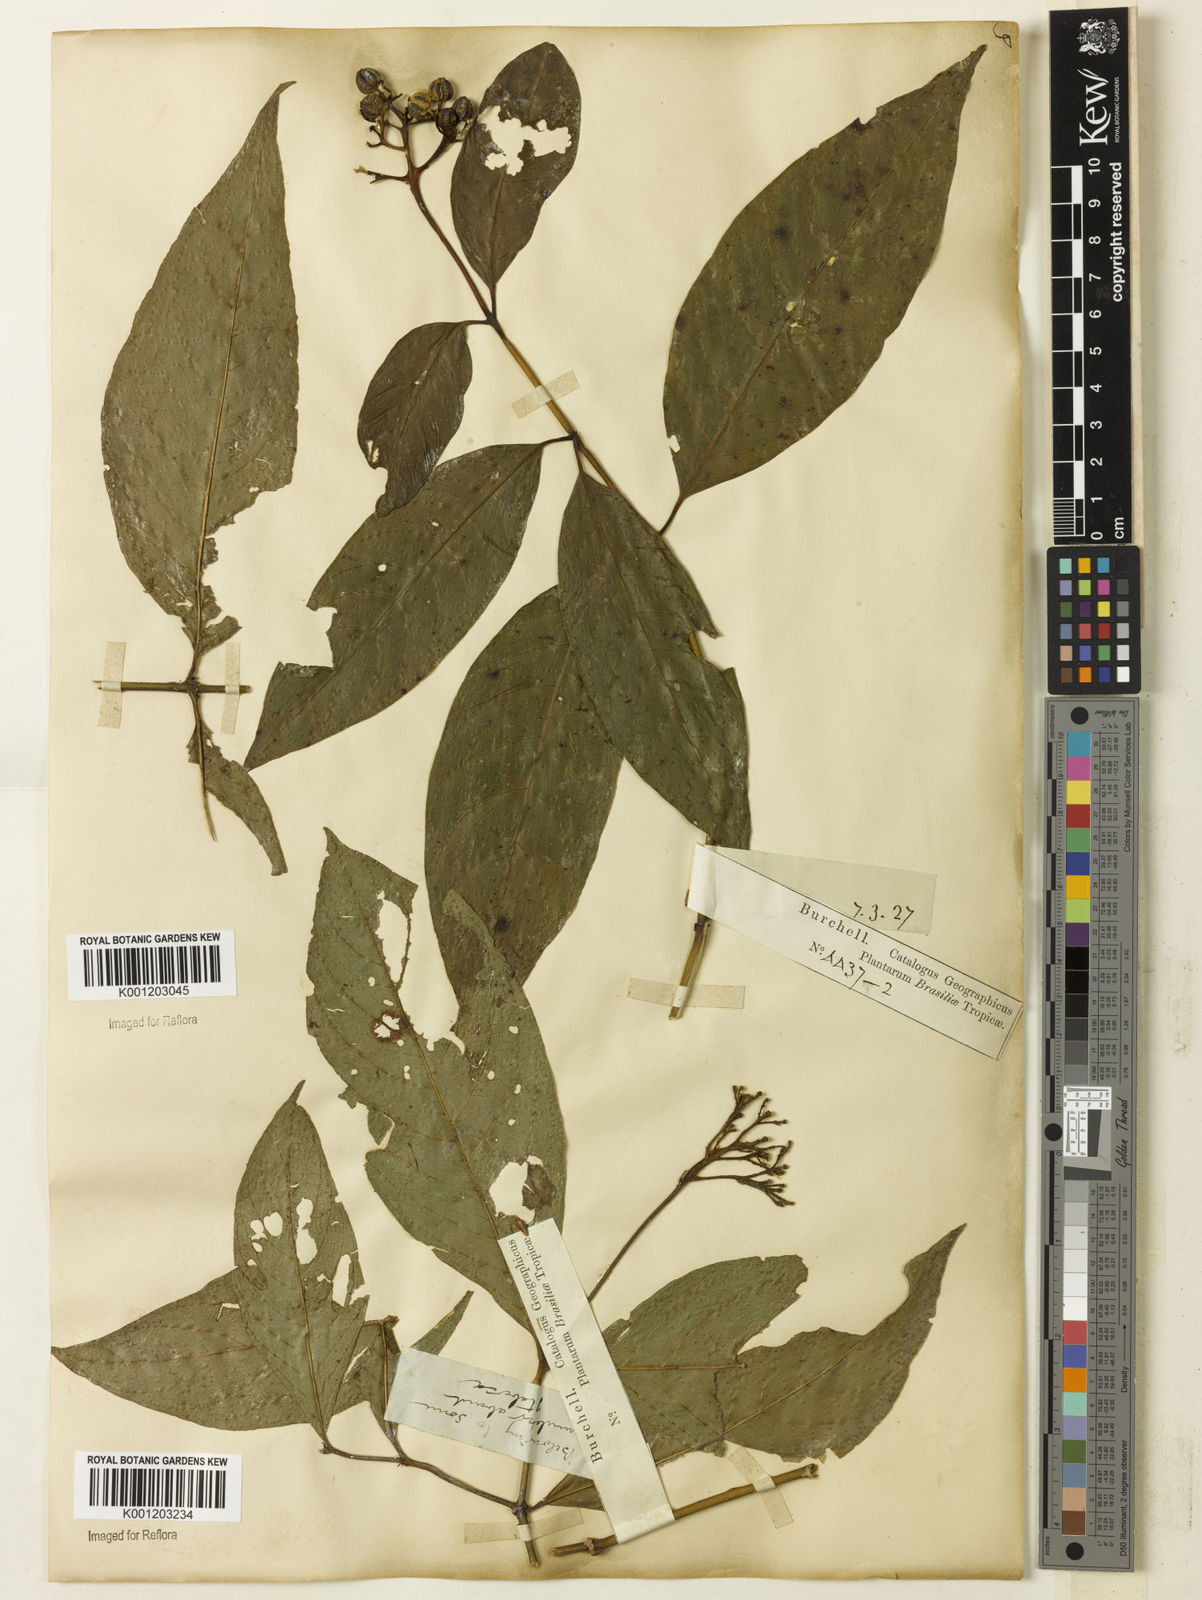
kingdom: Plantae
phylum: Tracheophyta
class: Magnoliopsida
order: Gentianales
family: Rubiaceae
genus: Palicourea
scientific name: Palicourea marcgravii
